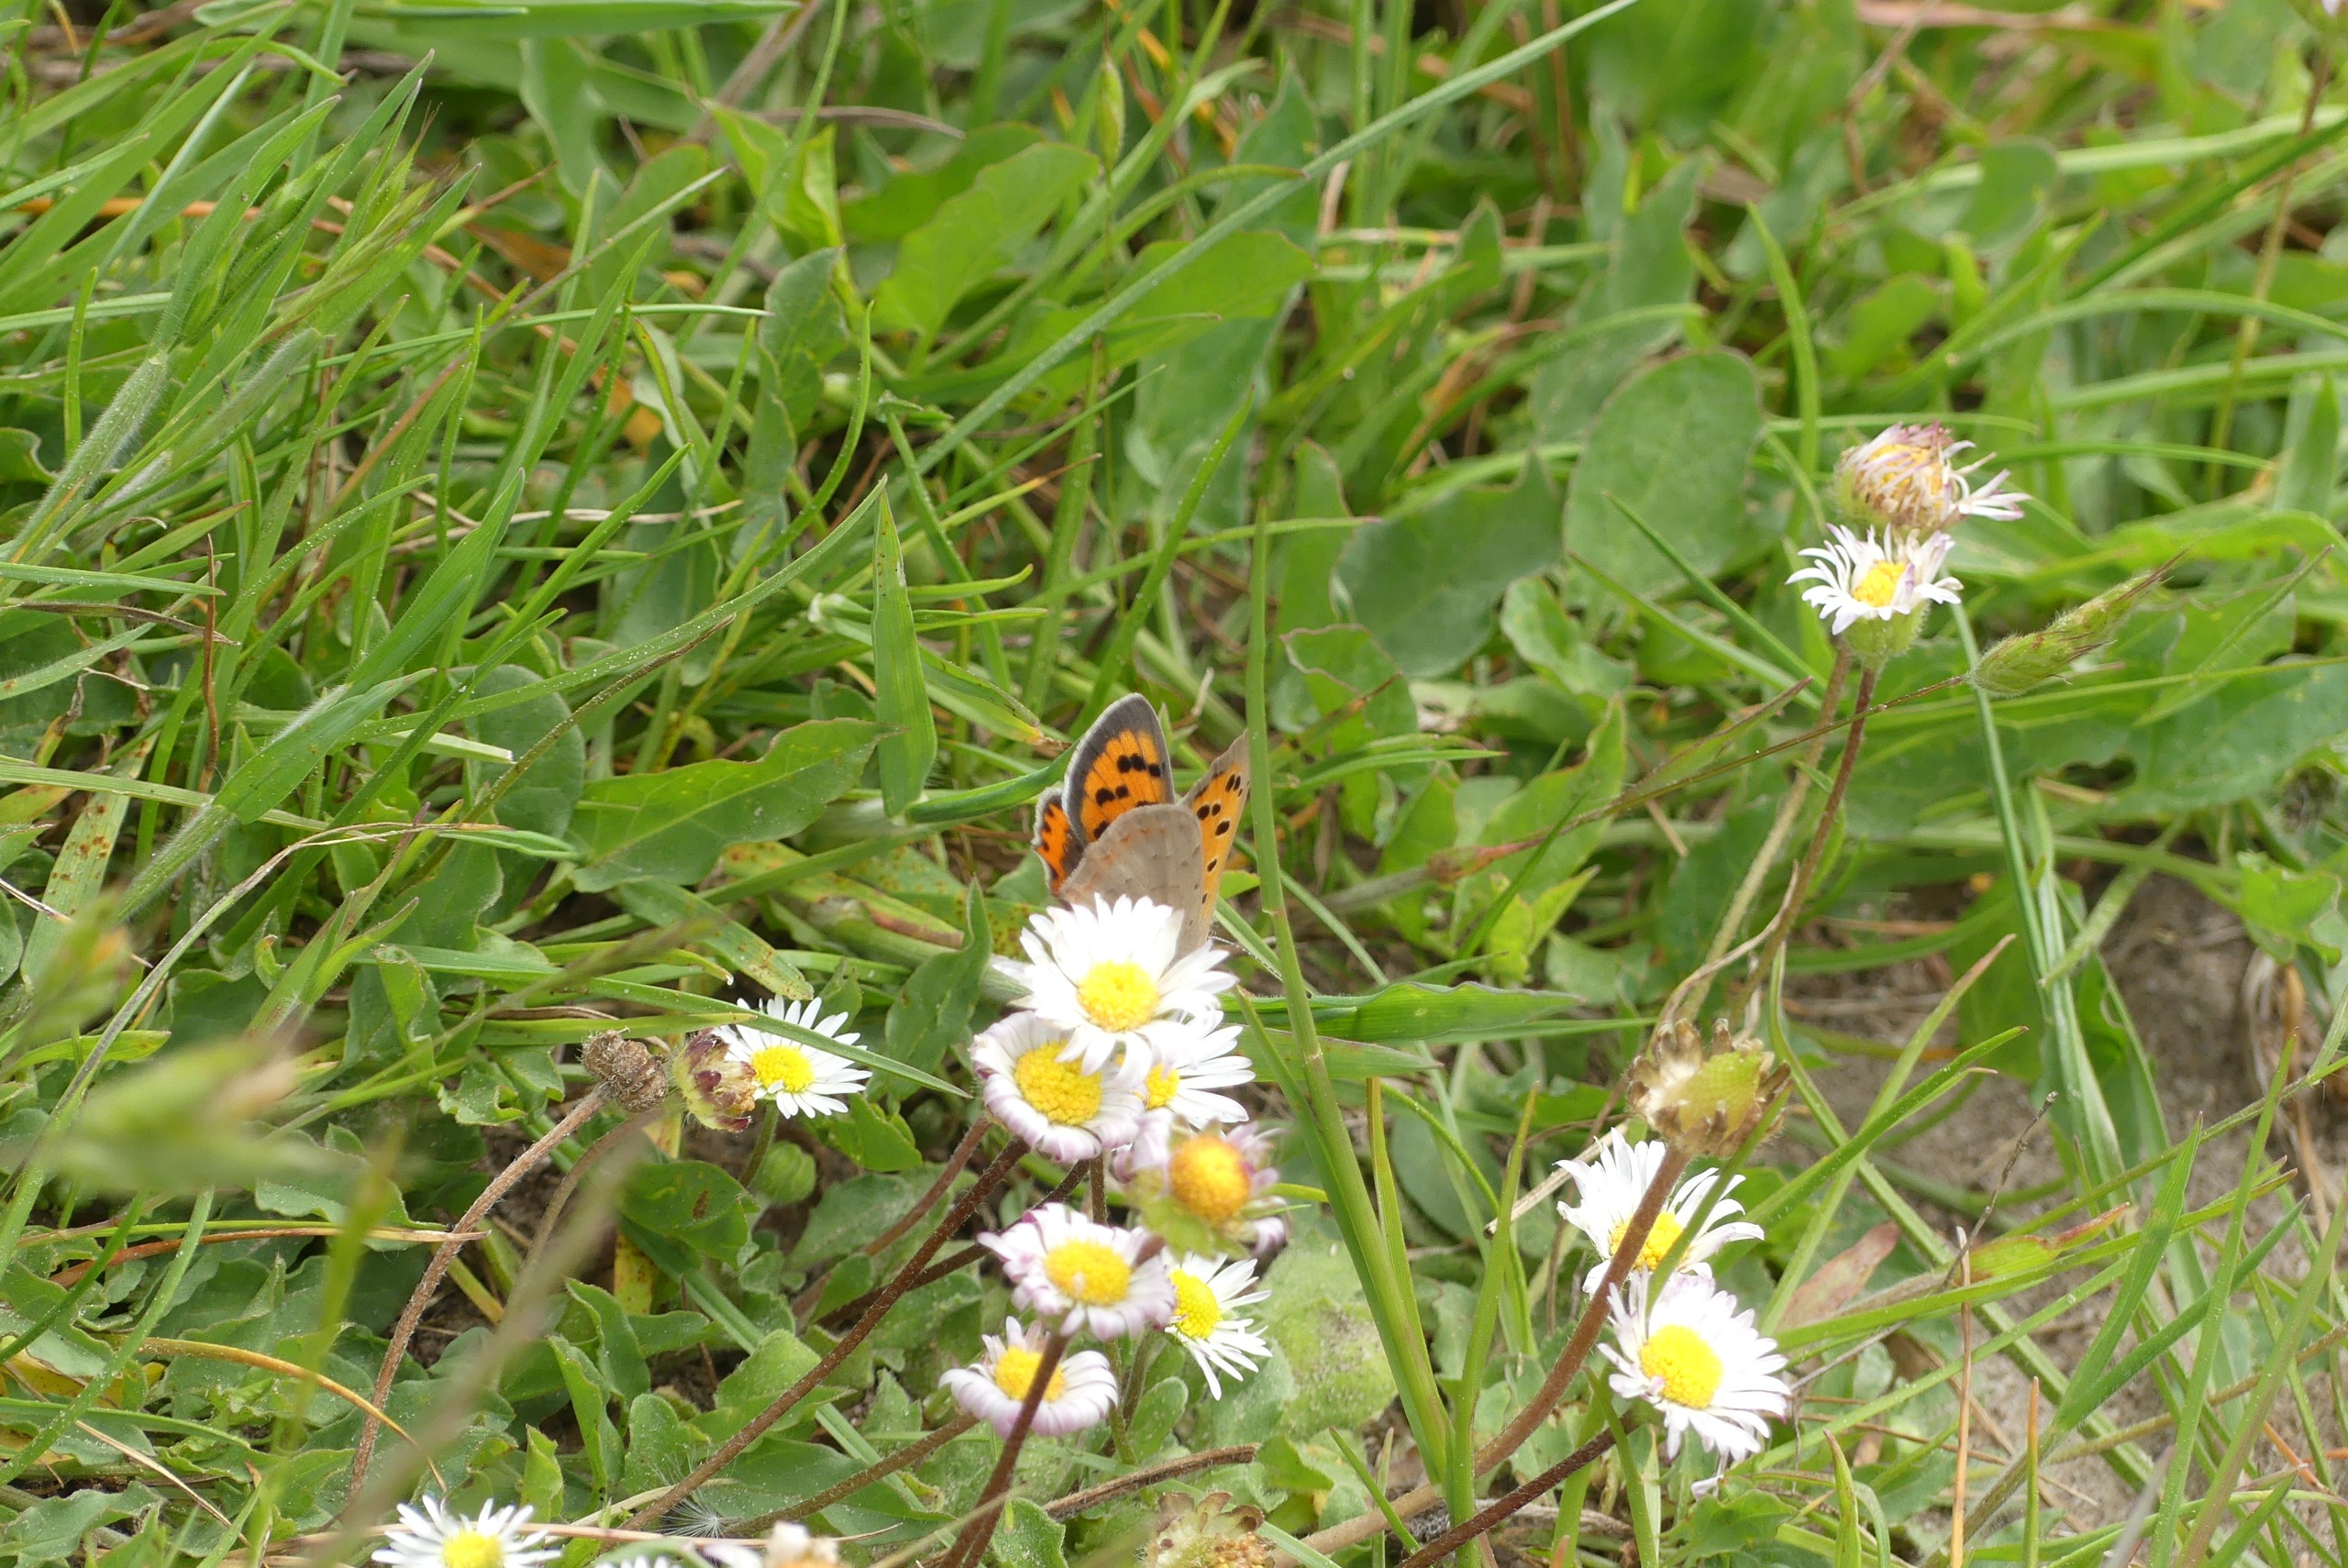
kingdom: Animalia
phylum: Arthropoda
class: Insecta
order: Lepidoptera
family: Lycaenidae
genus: Lycaena
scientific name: Lycaena phlaeas
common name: Lille ildfugl
